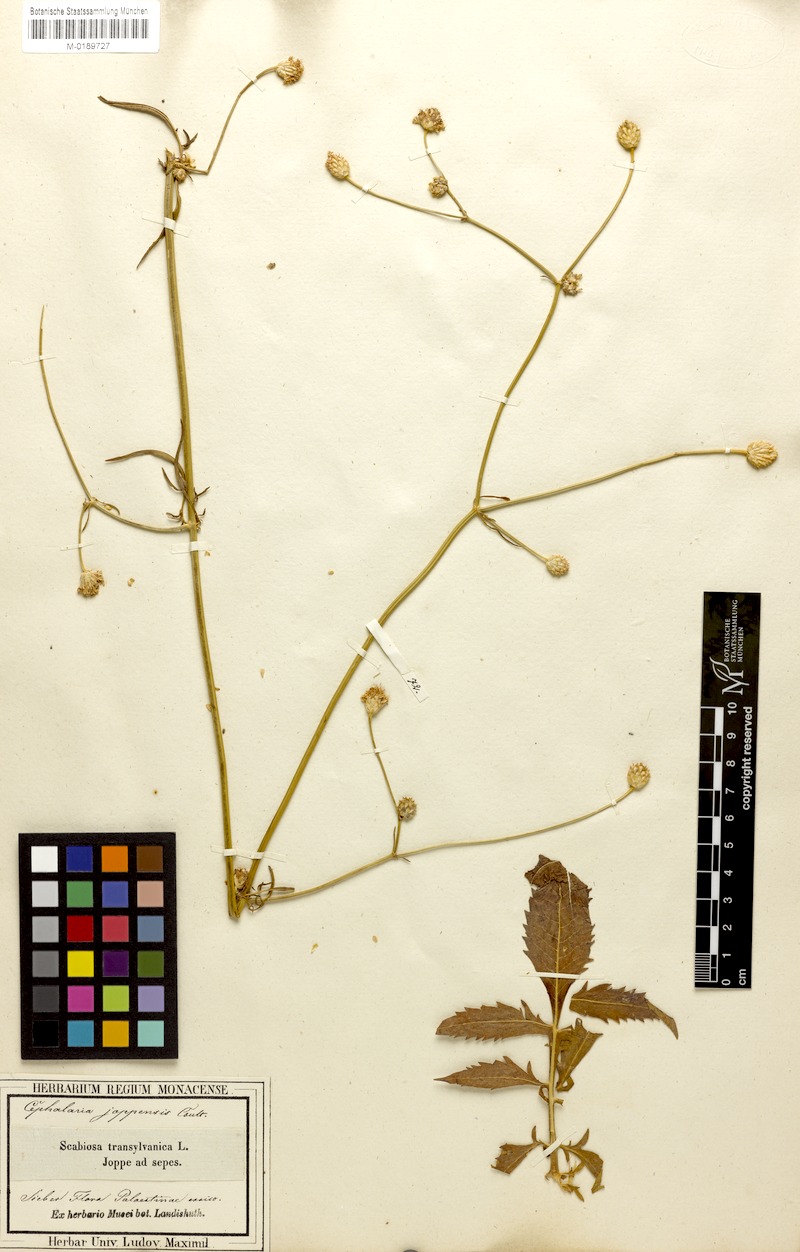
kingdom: Plantae
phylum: Tracheophyta
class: Magnoliopsida
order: Dipsacales
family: Caprifoliaceae
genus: Cephalaria
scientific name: Cephalaria joppensis
